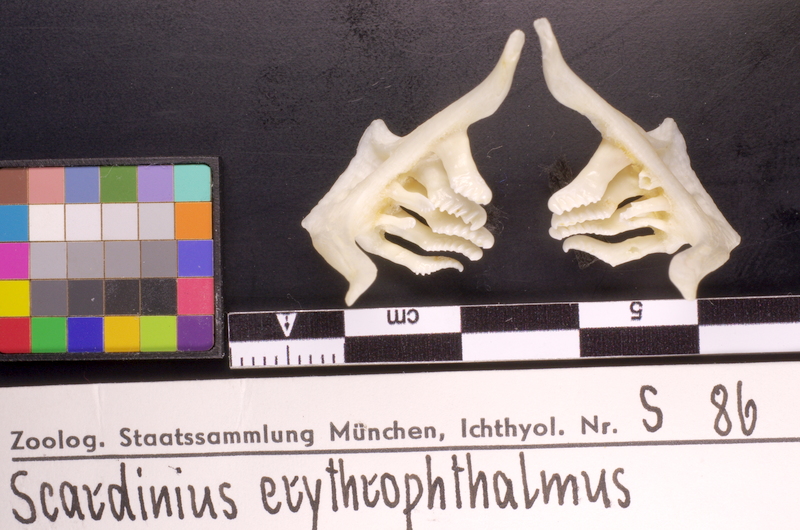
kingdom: Animalia
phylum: Chordata
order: Cypriniformes
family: Cyprinidae
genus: Scardinius
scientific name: Scardinius erythrophthalmus
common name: Rudd
